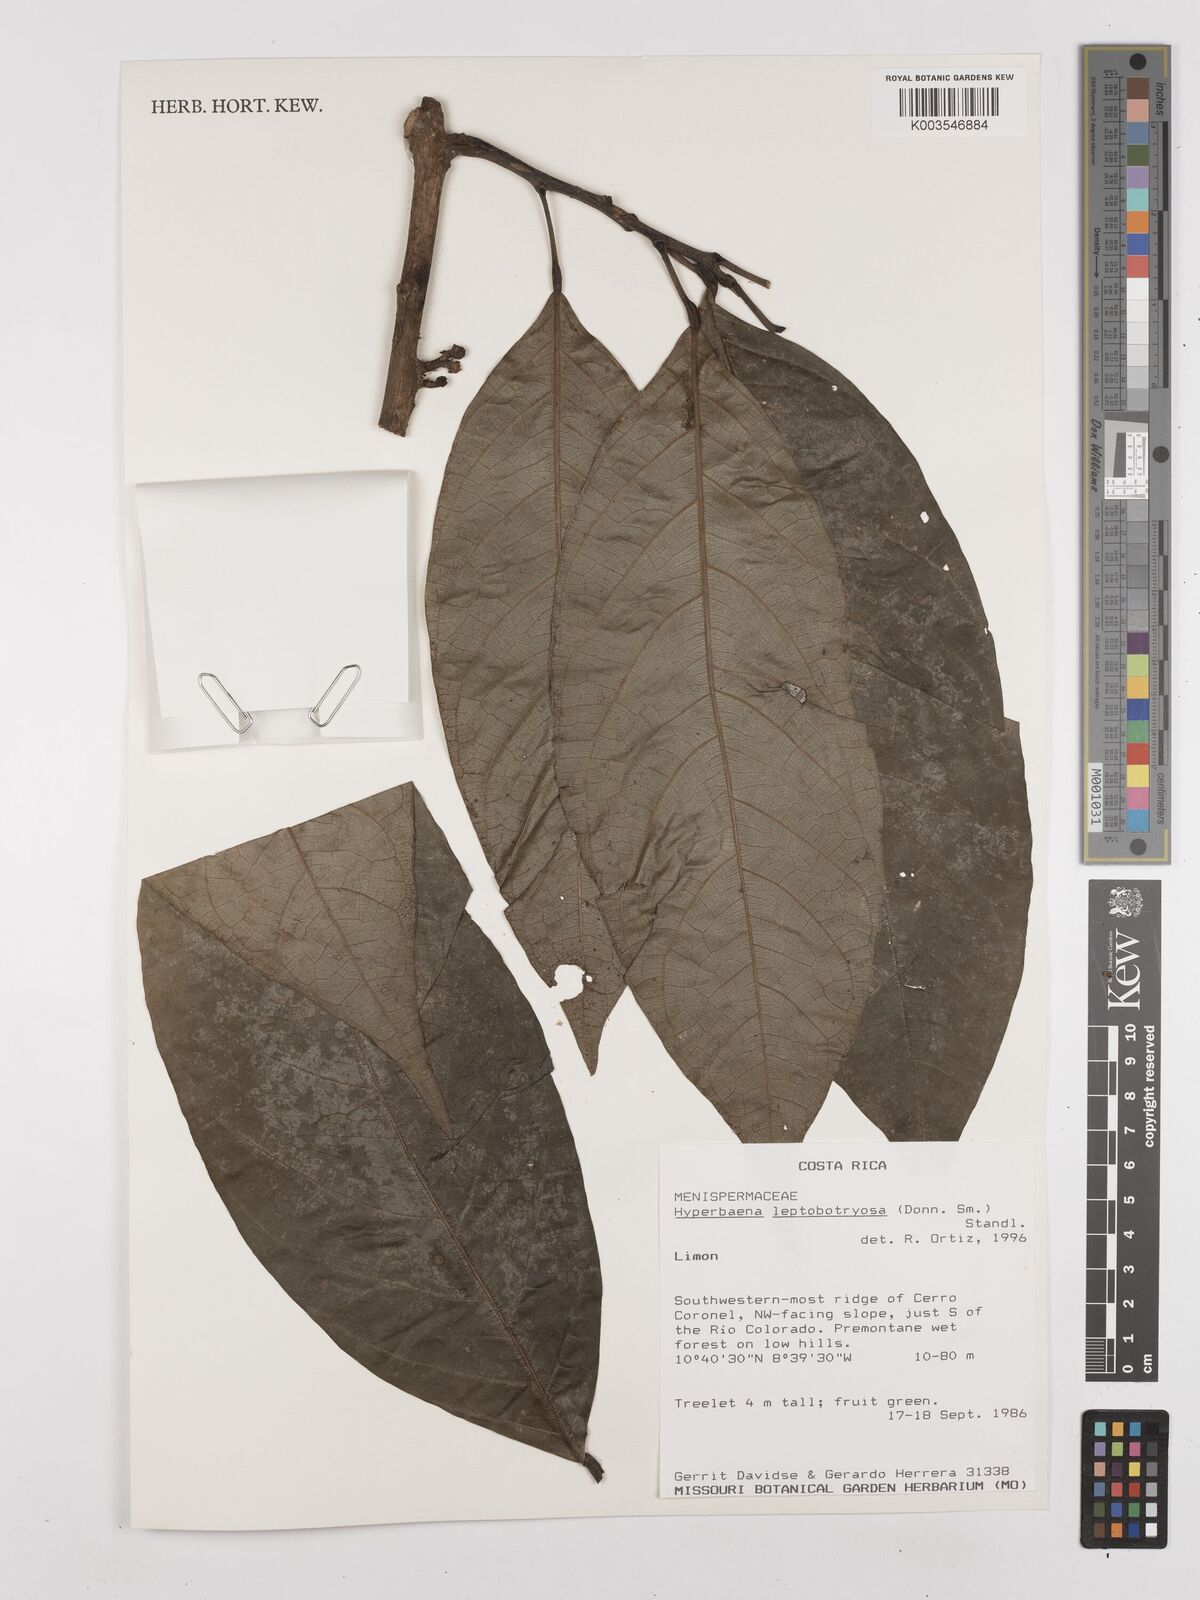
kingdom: Plantae
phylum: Tracheophyta
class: Magnoliopsida
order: Ranunculales
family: Menispermaceae
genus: Hyperbaena
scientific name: Hyperbaena leptobotryosa
